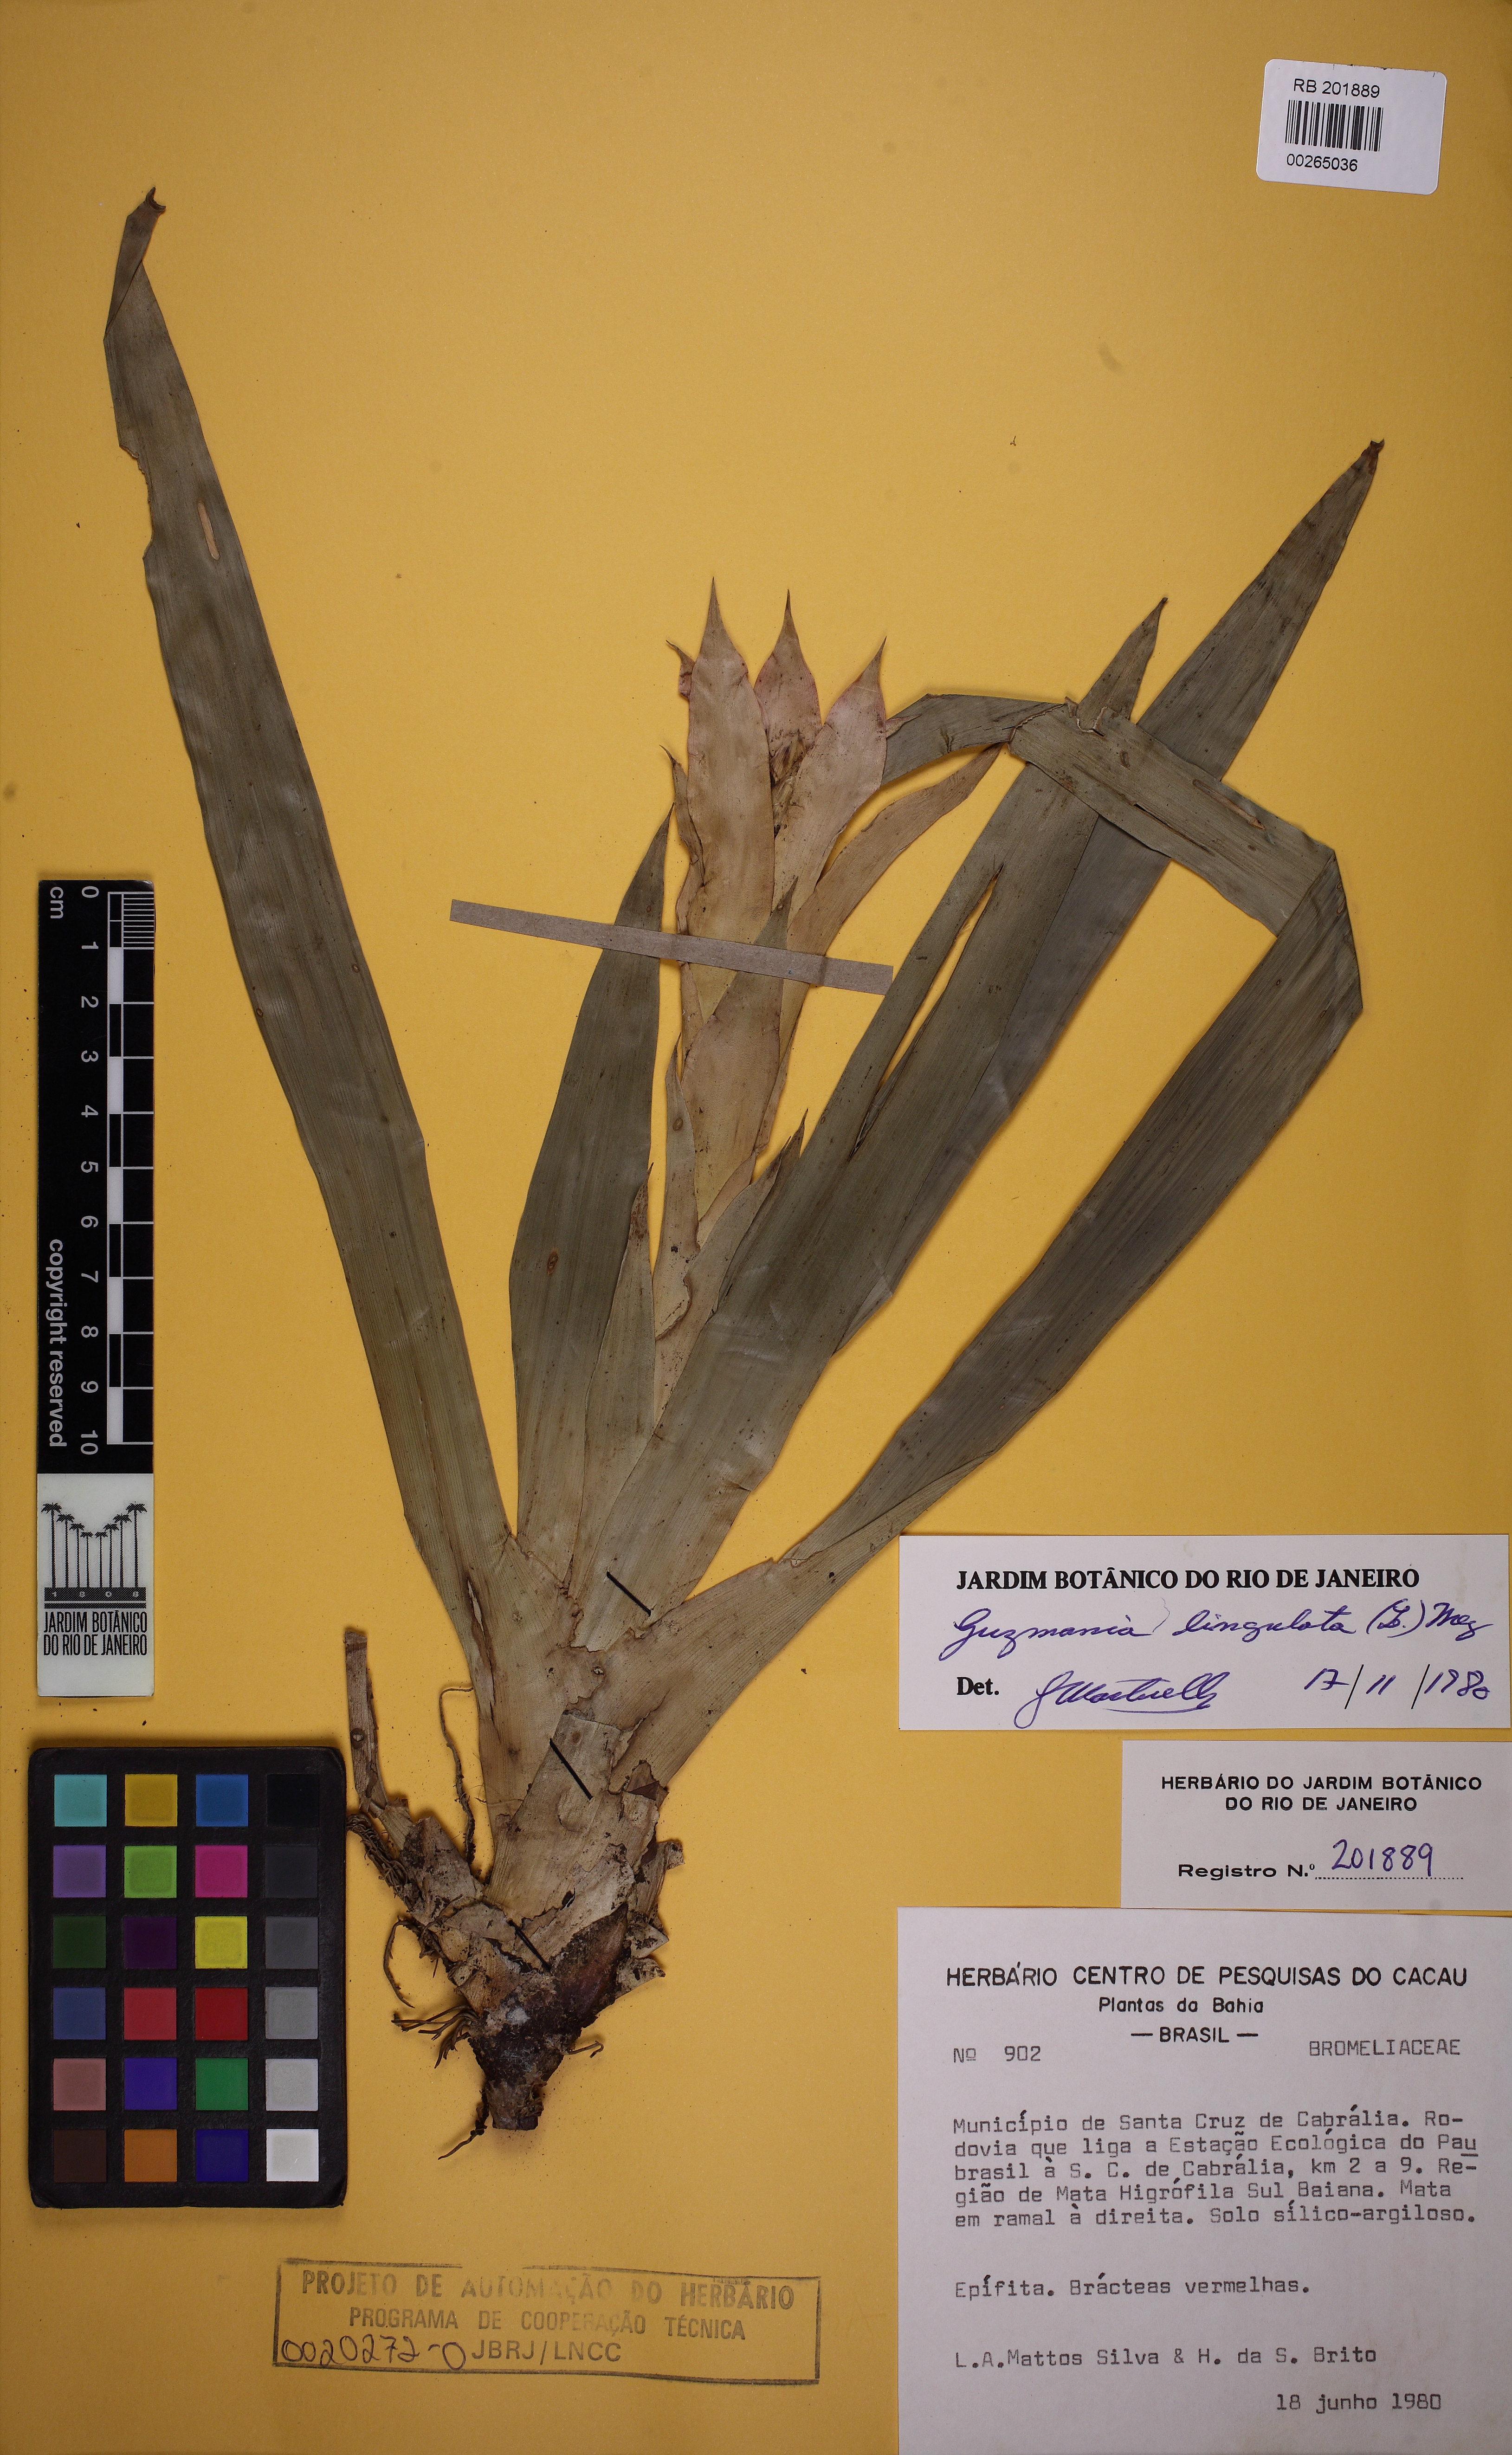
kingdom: Plantae
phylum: Tracheophyta
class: Liliopsida
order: Poales
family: Bromeliaceae
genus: Guzmania
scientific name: Guzmania lingulata
